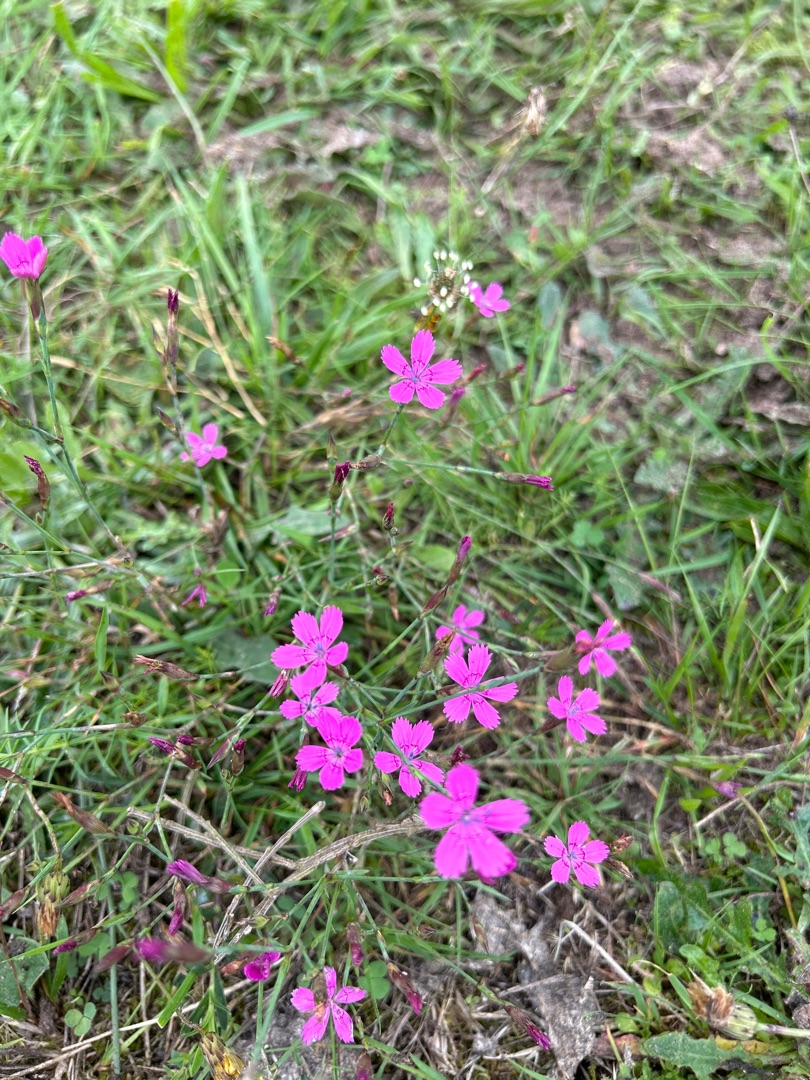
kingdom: Plantae
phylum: Tracheophyta
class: Magnoliopsida
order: Caryophyllales
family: Caryophyllaceae
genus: Dianthus
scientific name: Dianthus deltoides
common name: Bakke-nellike
